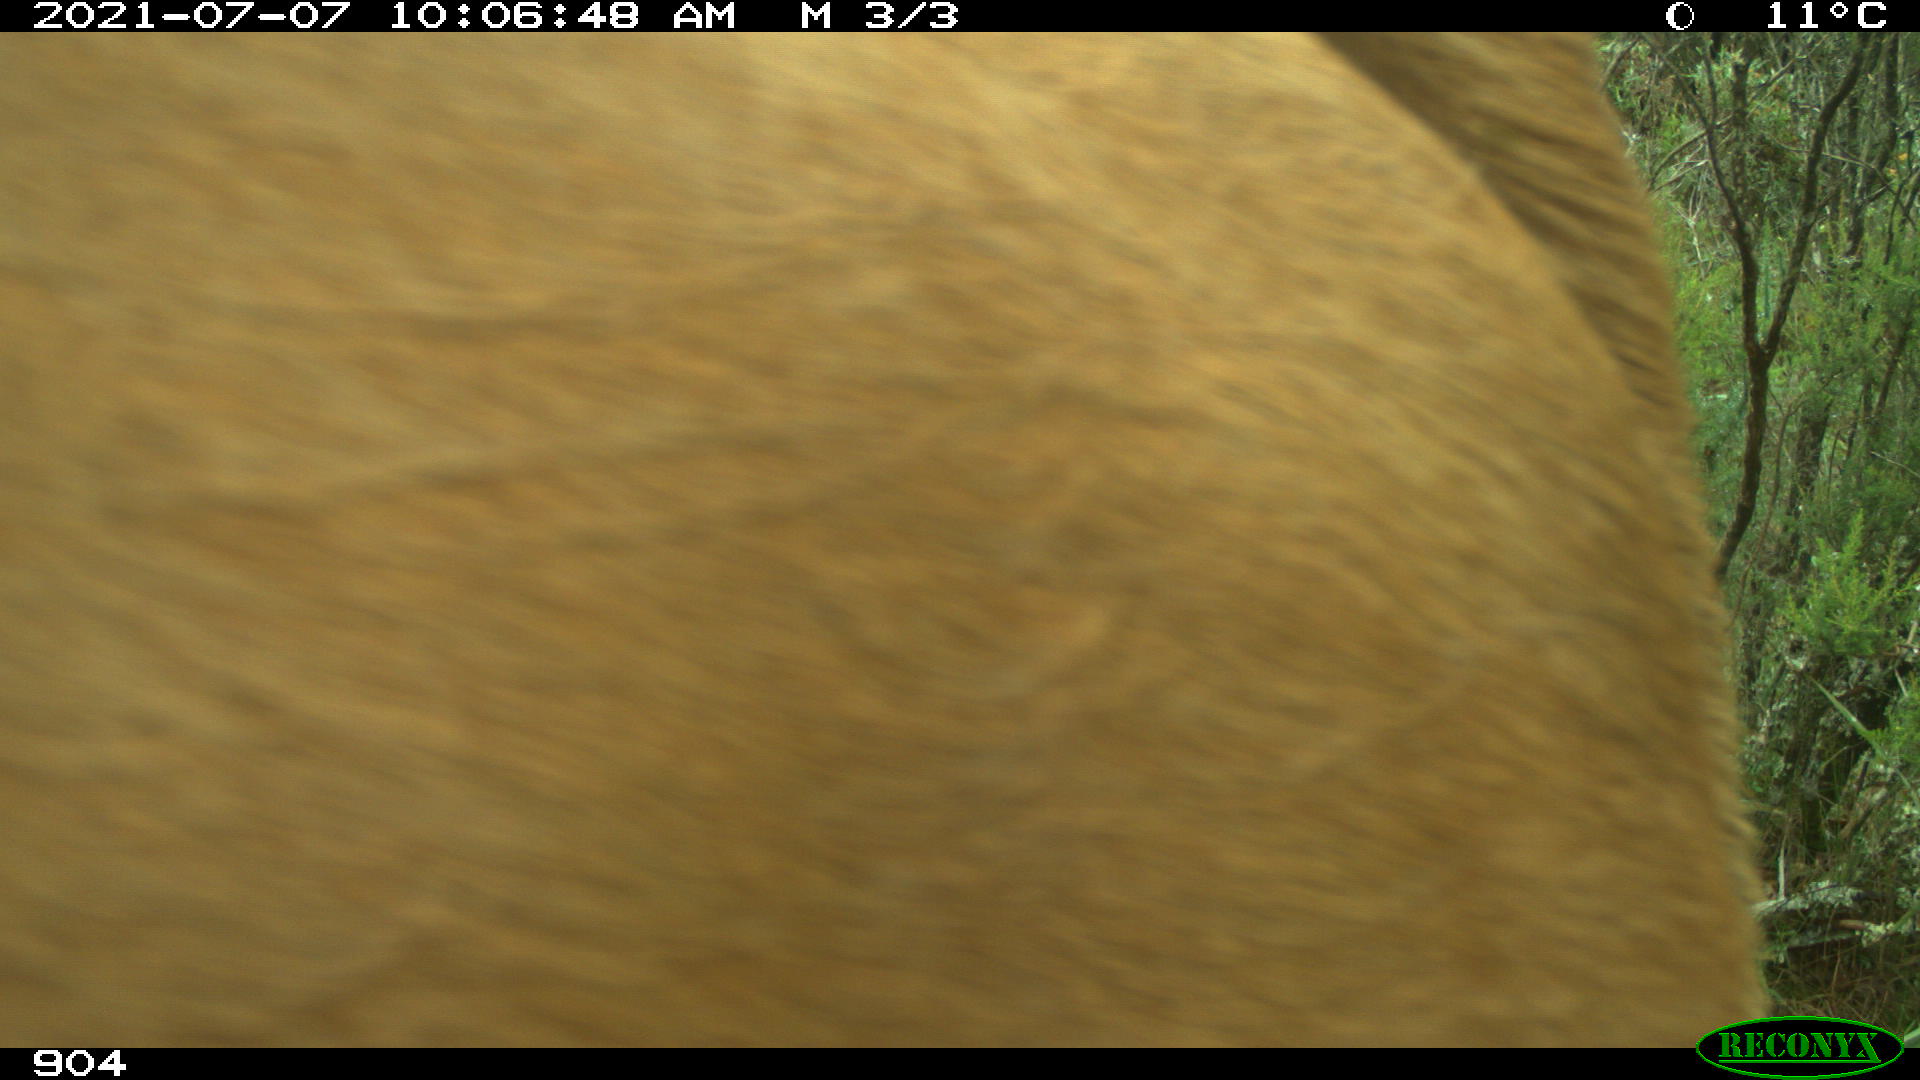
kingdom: Animalia
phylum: Chordata
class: Mammalia
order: Artiodactyla
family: Bovidae
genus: Bos
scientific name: Bos taurus
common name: Domesticated cattle
